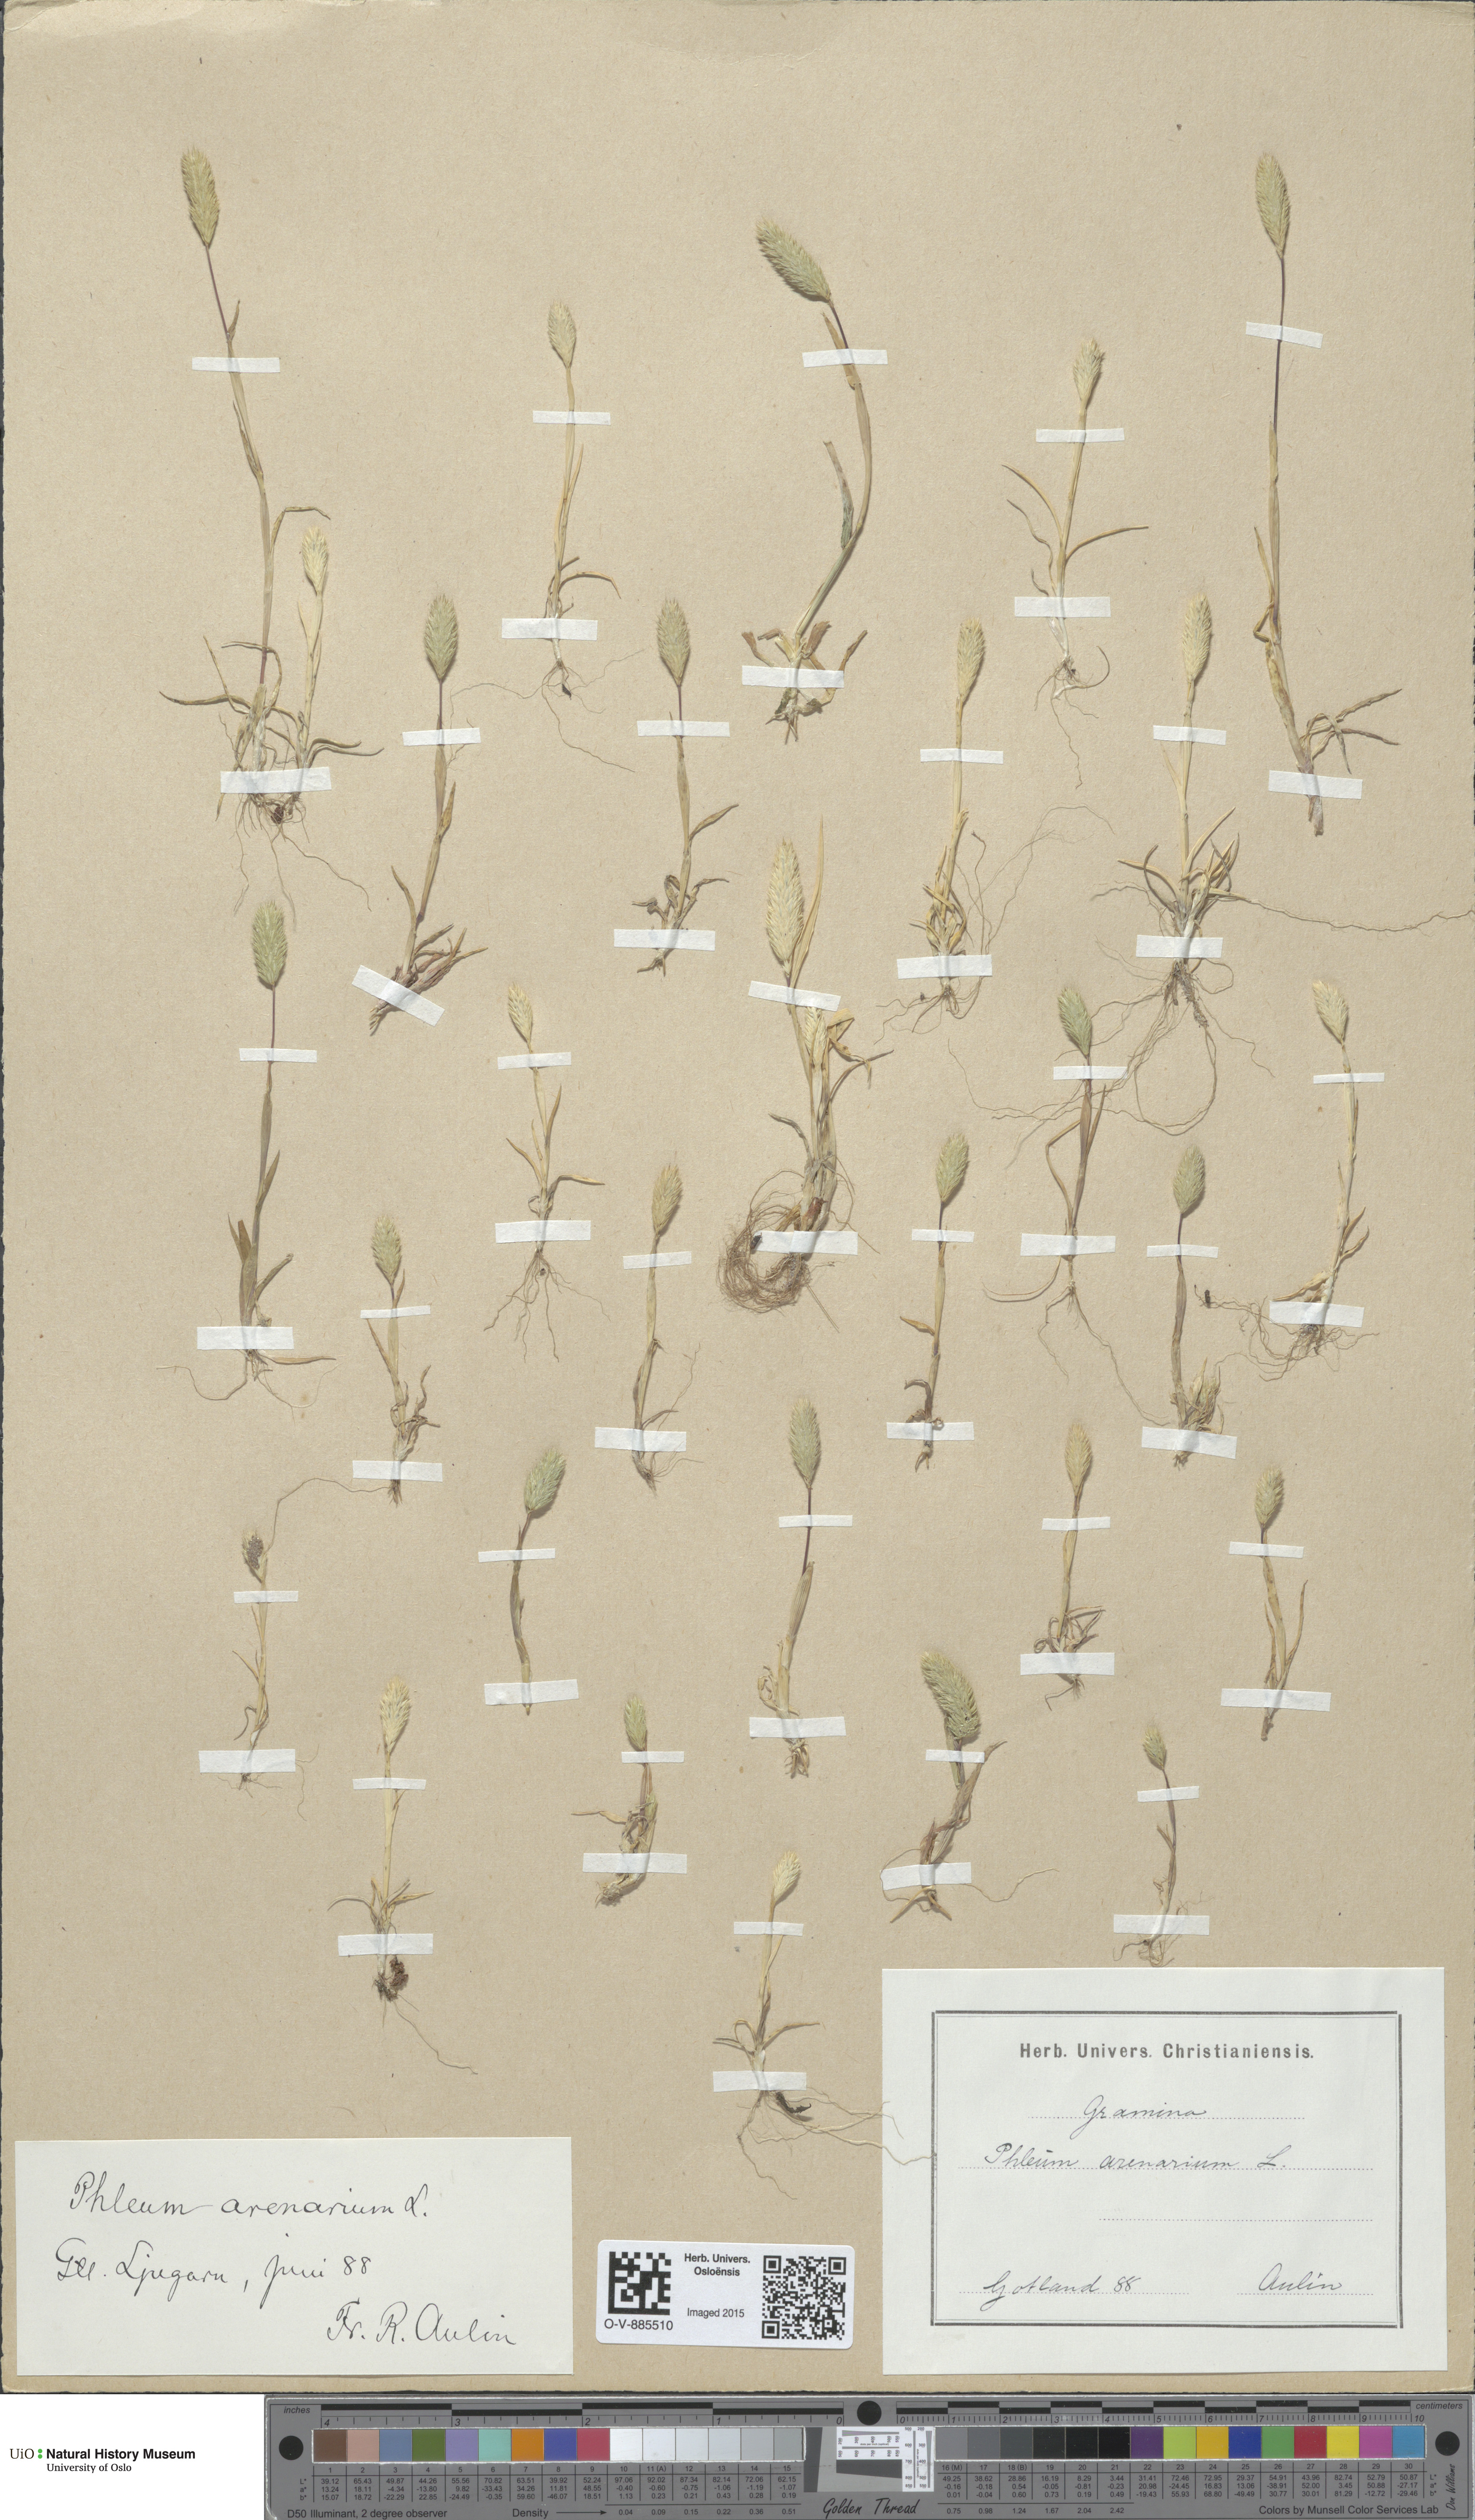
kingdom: Plantae
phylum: Tracheophyta
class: Liliopsida
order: Poales
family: Poaceae
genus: Phleum
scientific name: Phleum arenarium
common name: Sand cat's-tail
